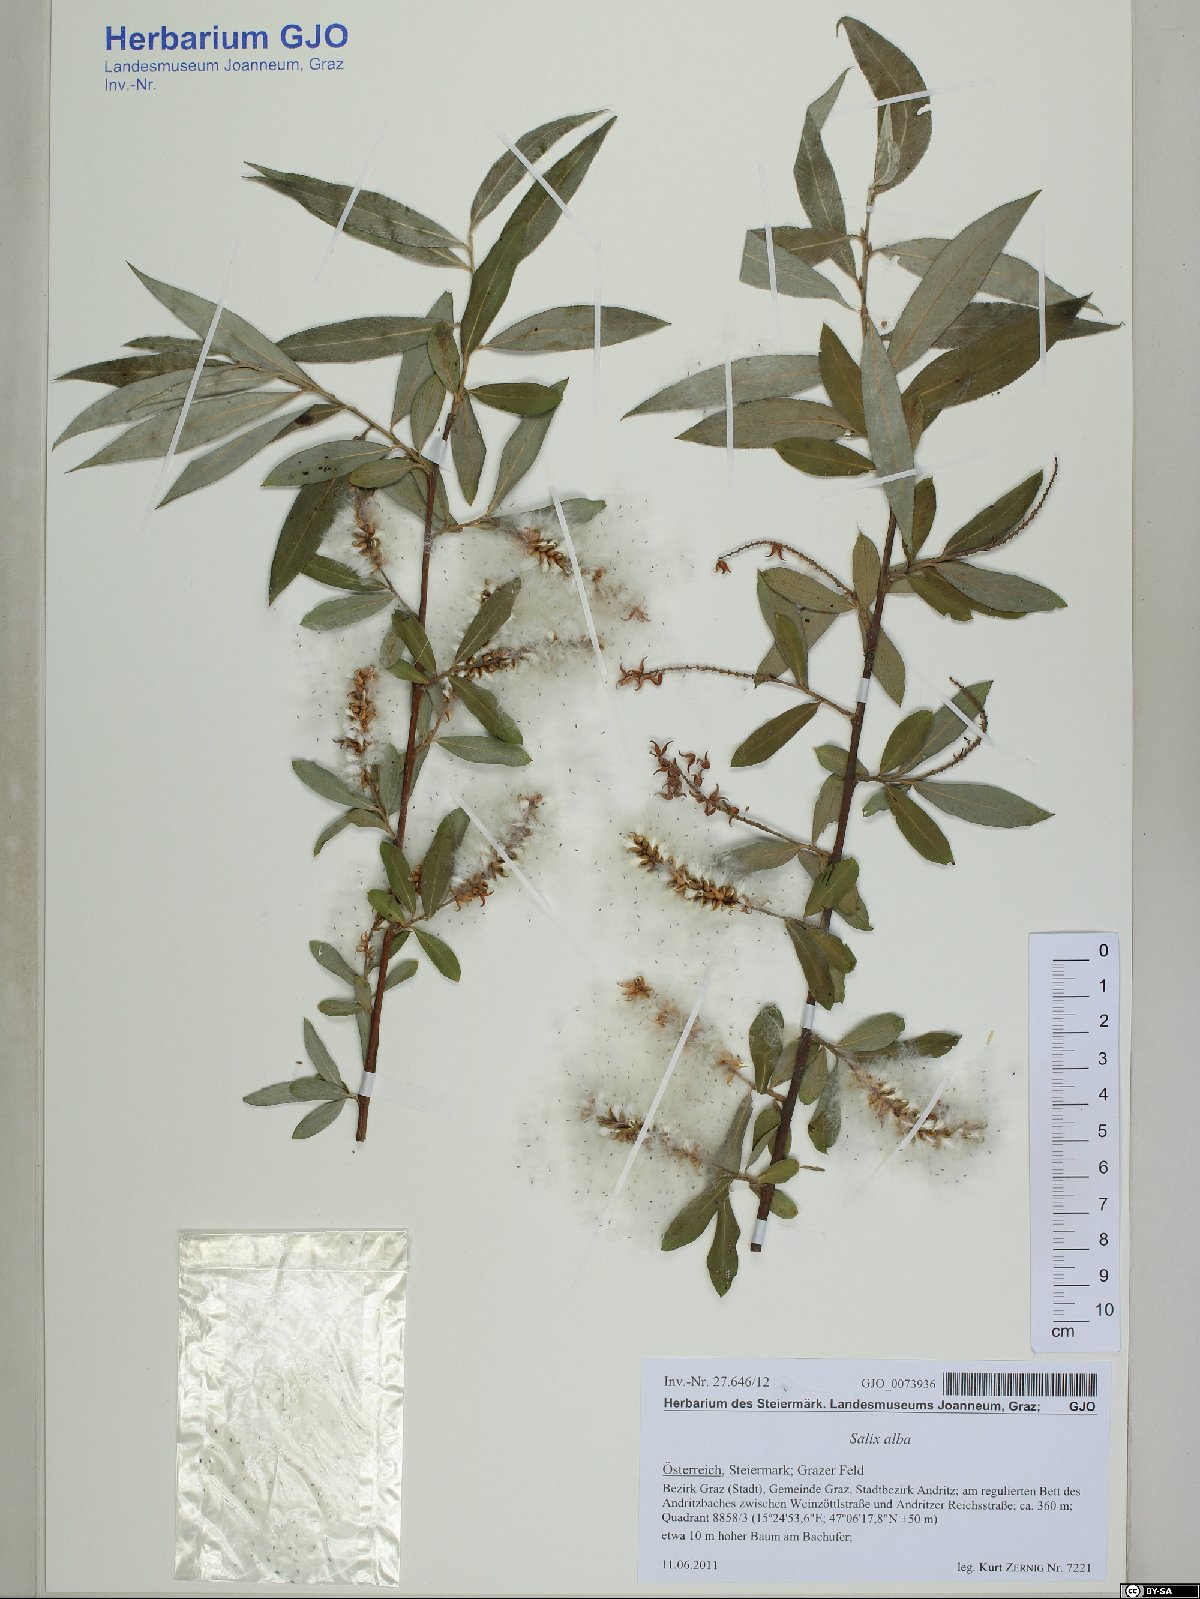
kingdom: Plantae
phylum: Tracheophyta
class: Magnoliopsida
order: Malpighiales
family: Salicaceae
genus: Salix
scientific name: Salix alba
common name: White willow
